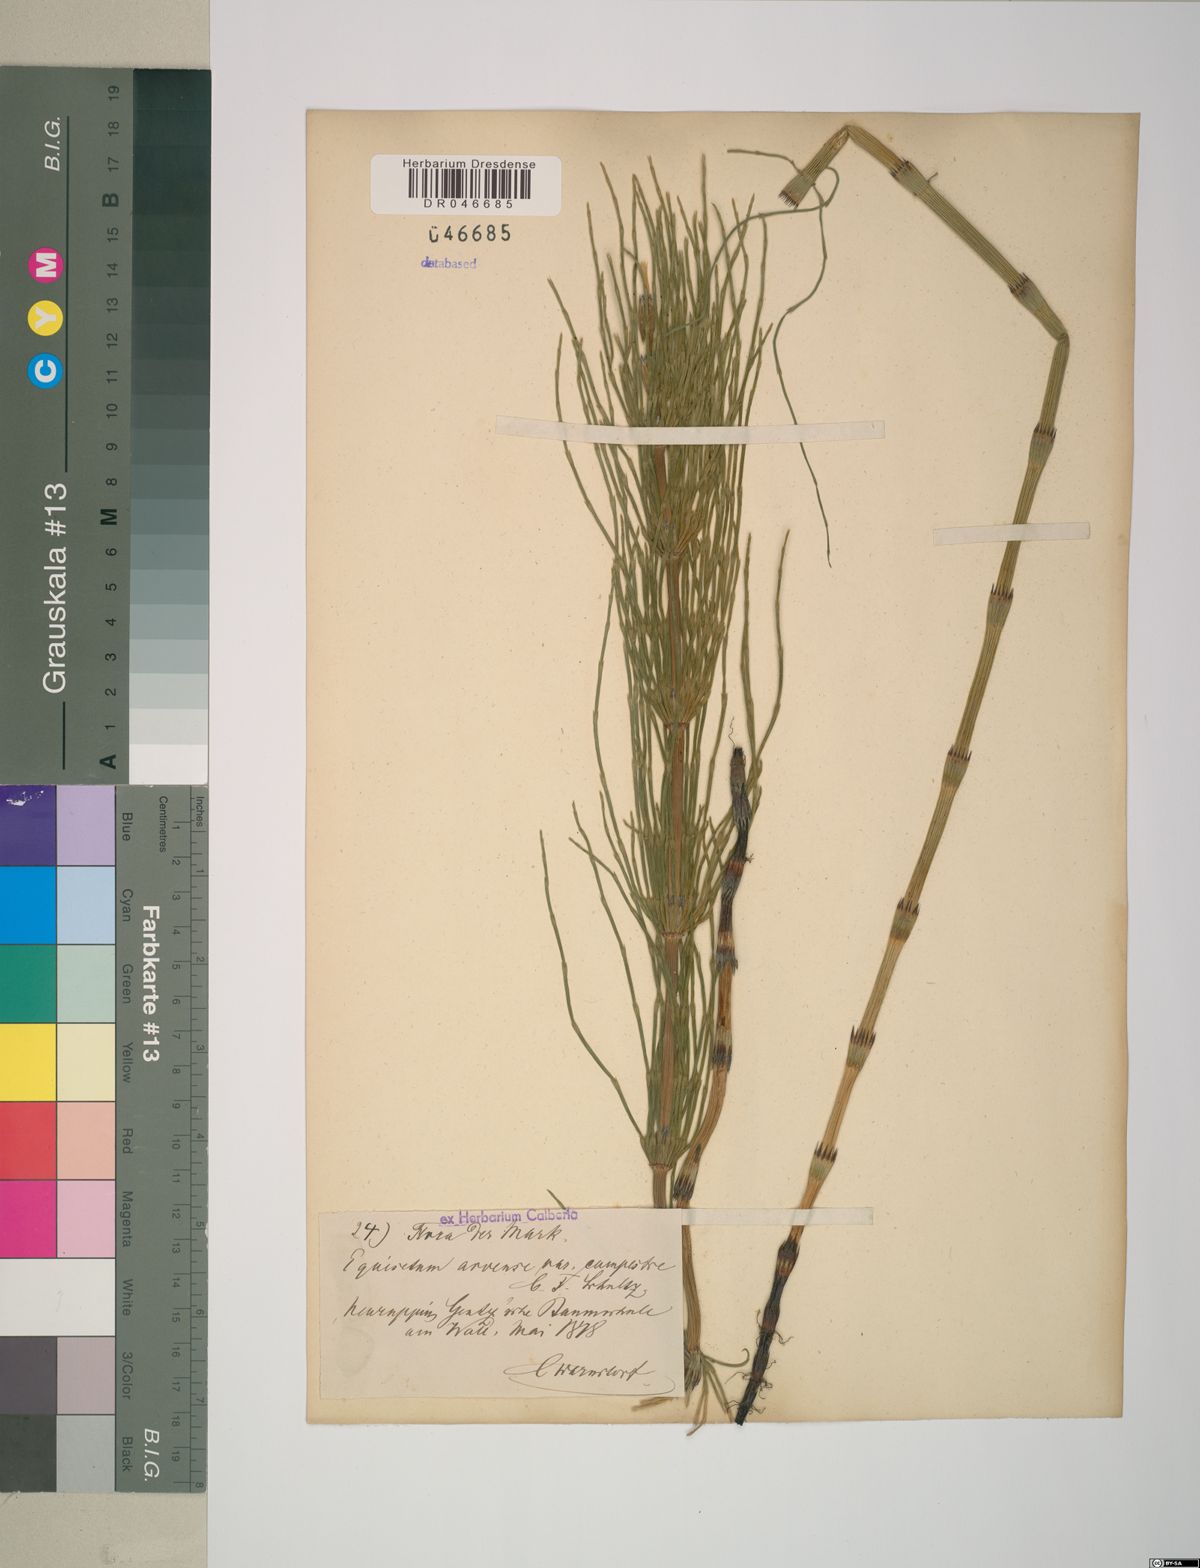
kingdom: Plantae
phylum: Tracheophyta
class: Polypodiopsida
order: Equisetales
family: Equisetaceae
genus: Equisetum
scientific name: Equisetum arvense
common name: Field horsetail
